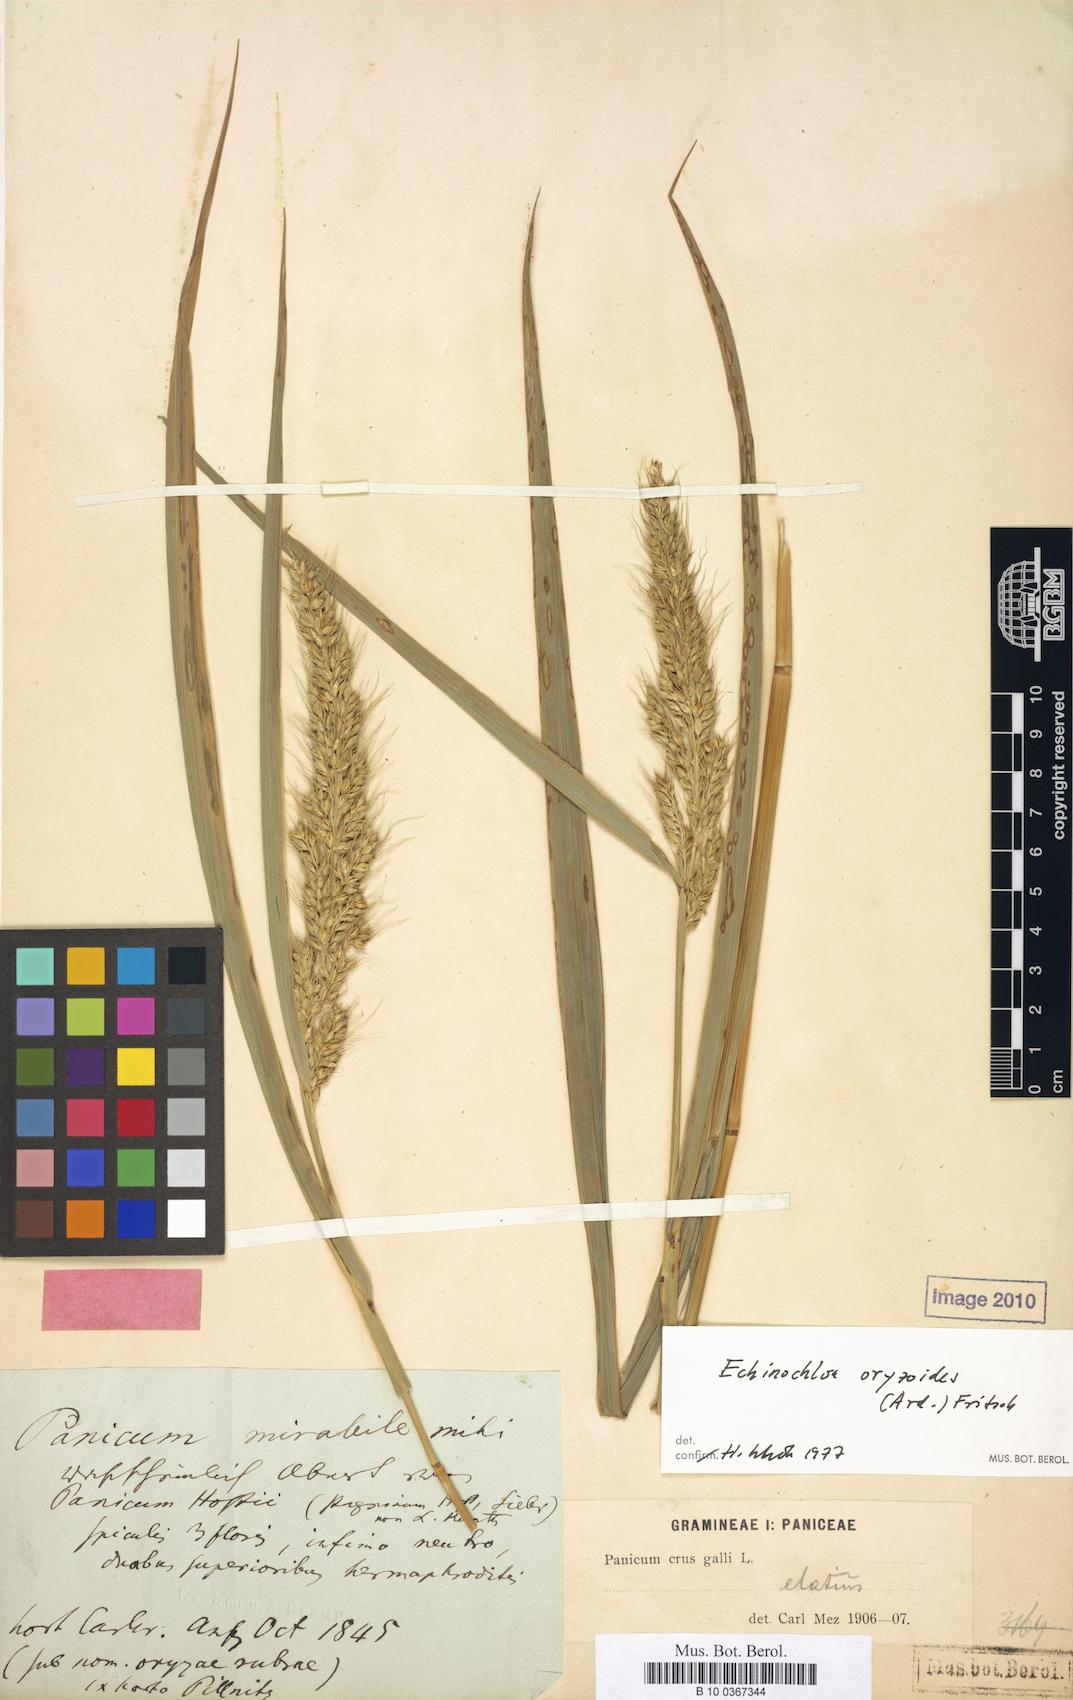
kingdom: Plantae
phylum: Tracheophyta
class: Liliopsida
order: Poales
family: Poaceae
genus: Echinochloa
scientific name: Echinochloa oryzoides
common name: Early water grass
